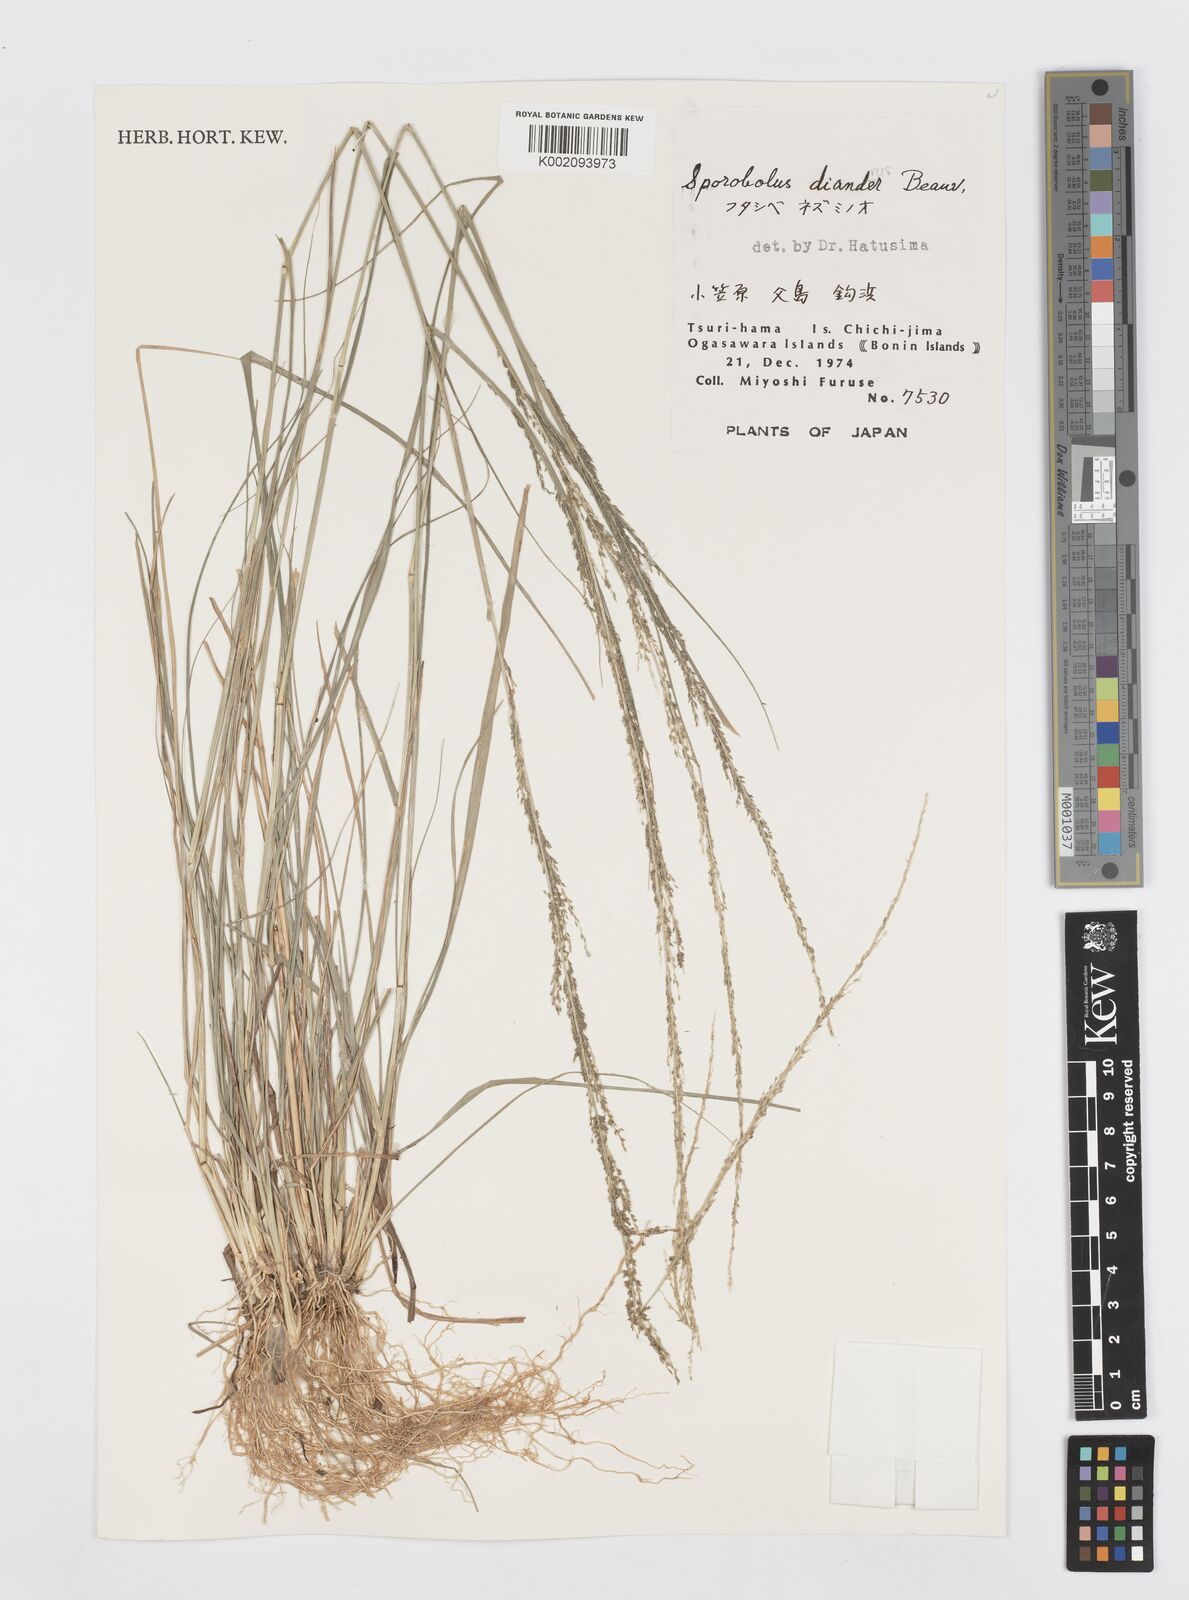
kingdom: Plantae
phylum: Tracheophyta
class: Liliopsida
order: Poales
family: Poaceae
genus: Sporobolus
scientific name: Sporobolus diandrus
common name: Tussock dropseed
